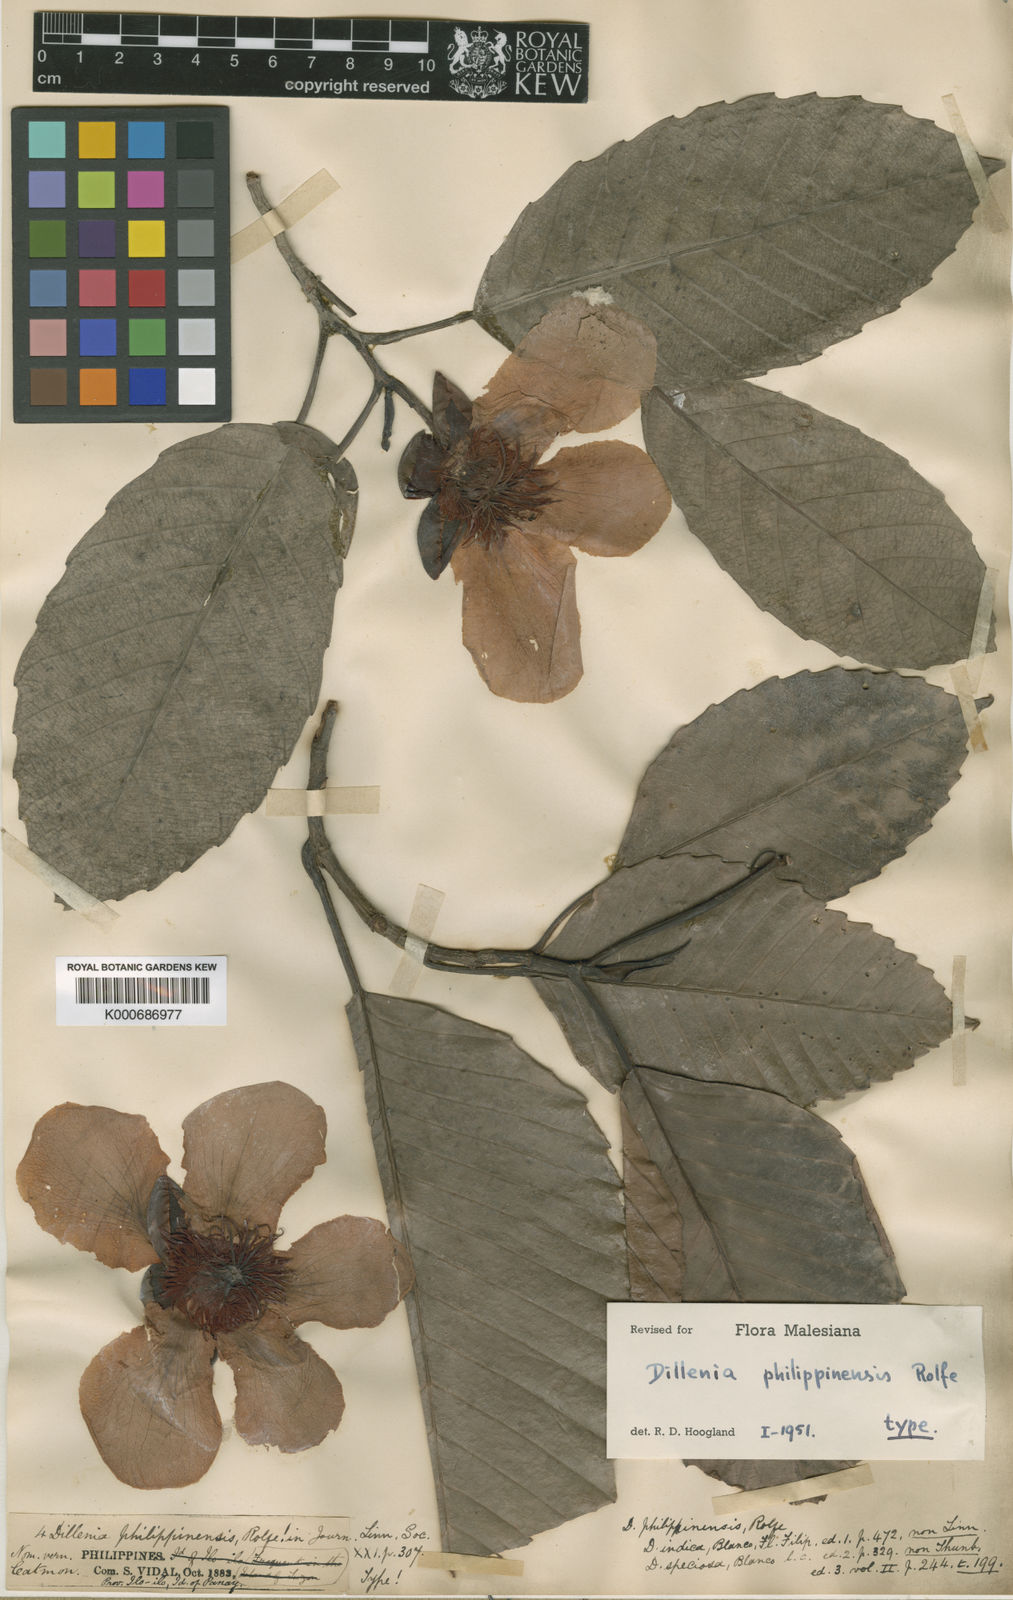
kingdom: Plantae
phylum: Tracheophyta
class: Magnoliopsida
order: Dilleniales
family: Dilleniaceae
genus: Dillenia
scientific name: Dillenia philippinensis
